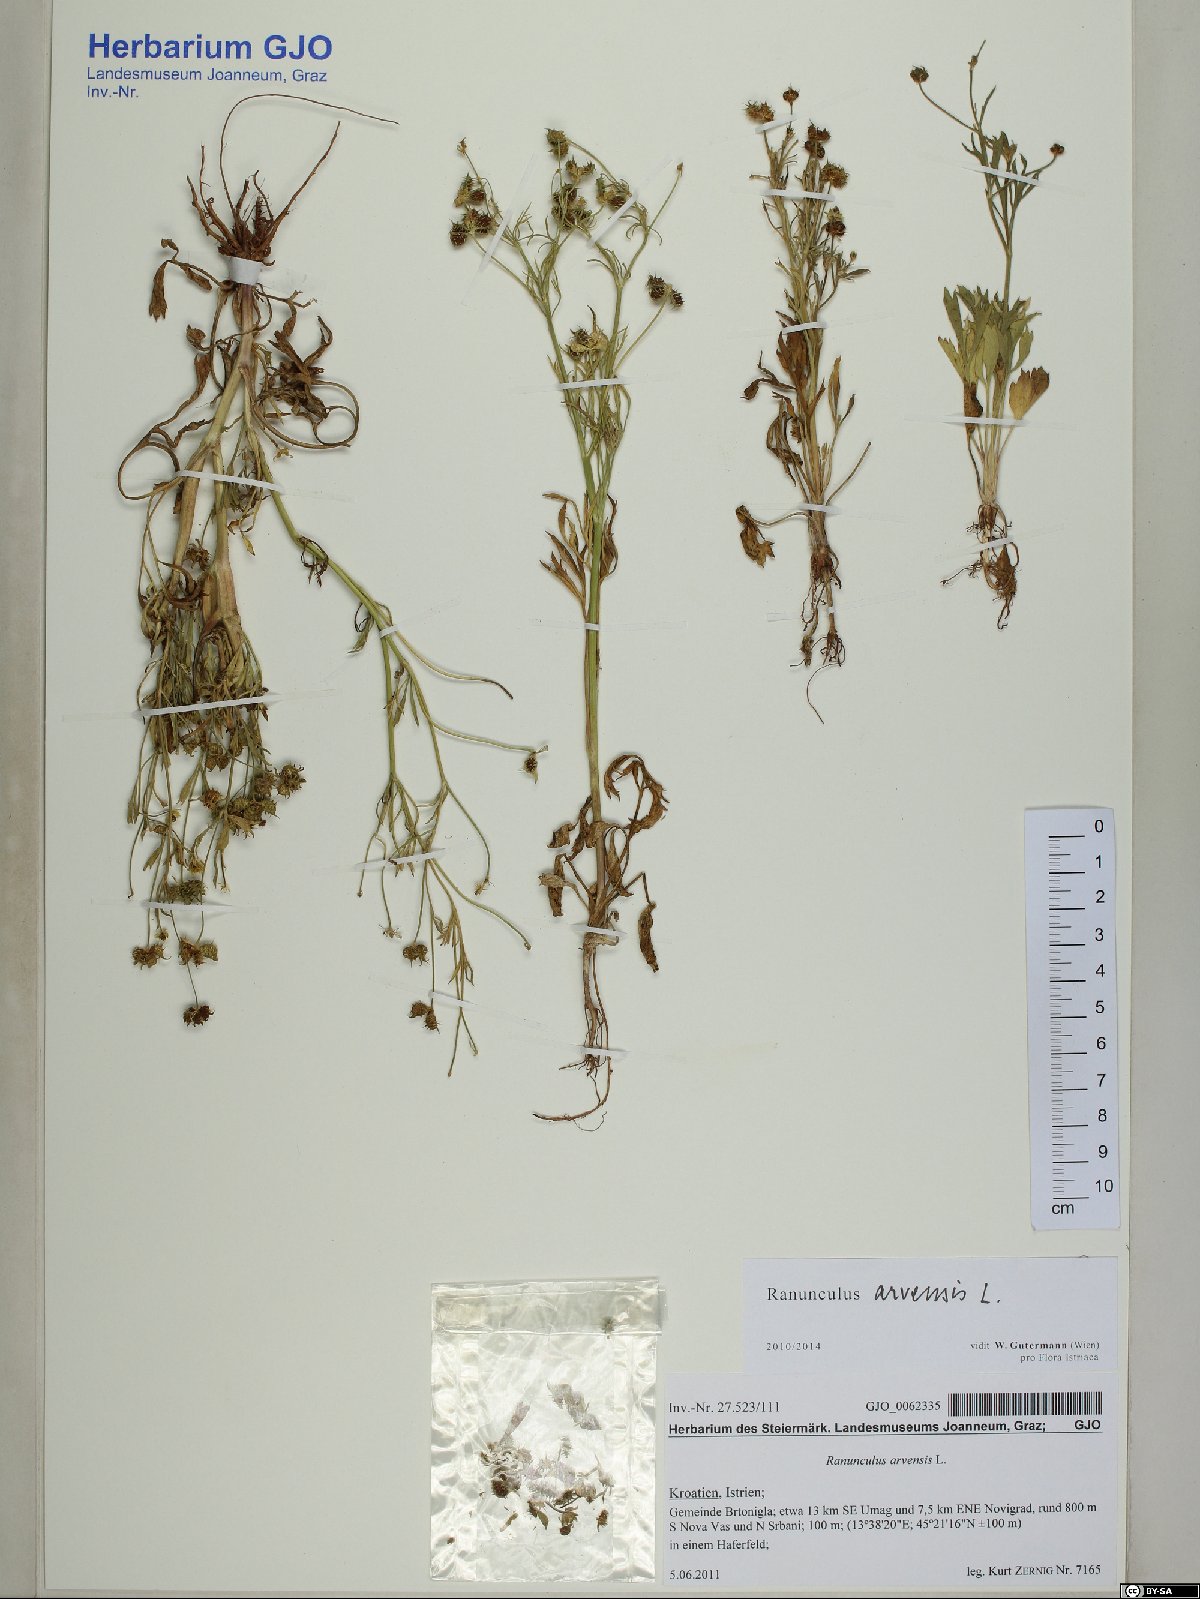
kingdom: Plantae
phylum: Tracheophyta
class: Magnoliopsida
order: Ranunculales
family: Ranunculaceae
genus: Ranunculus
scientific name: Ranunculus arvensis
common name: Corn buttercup
